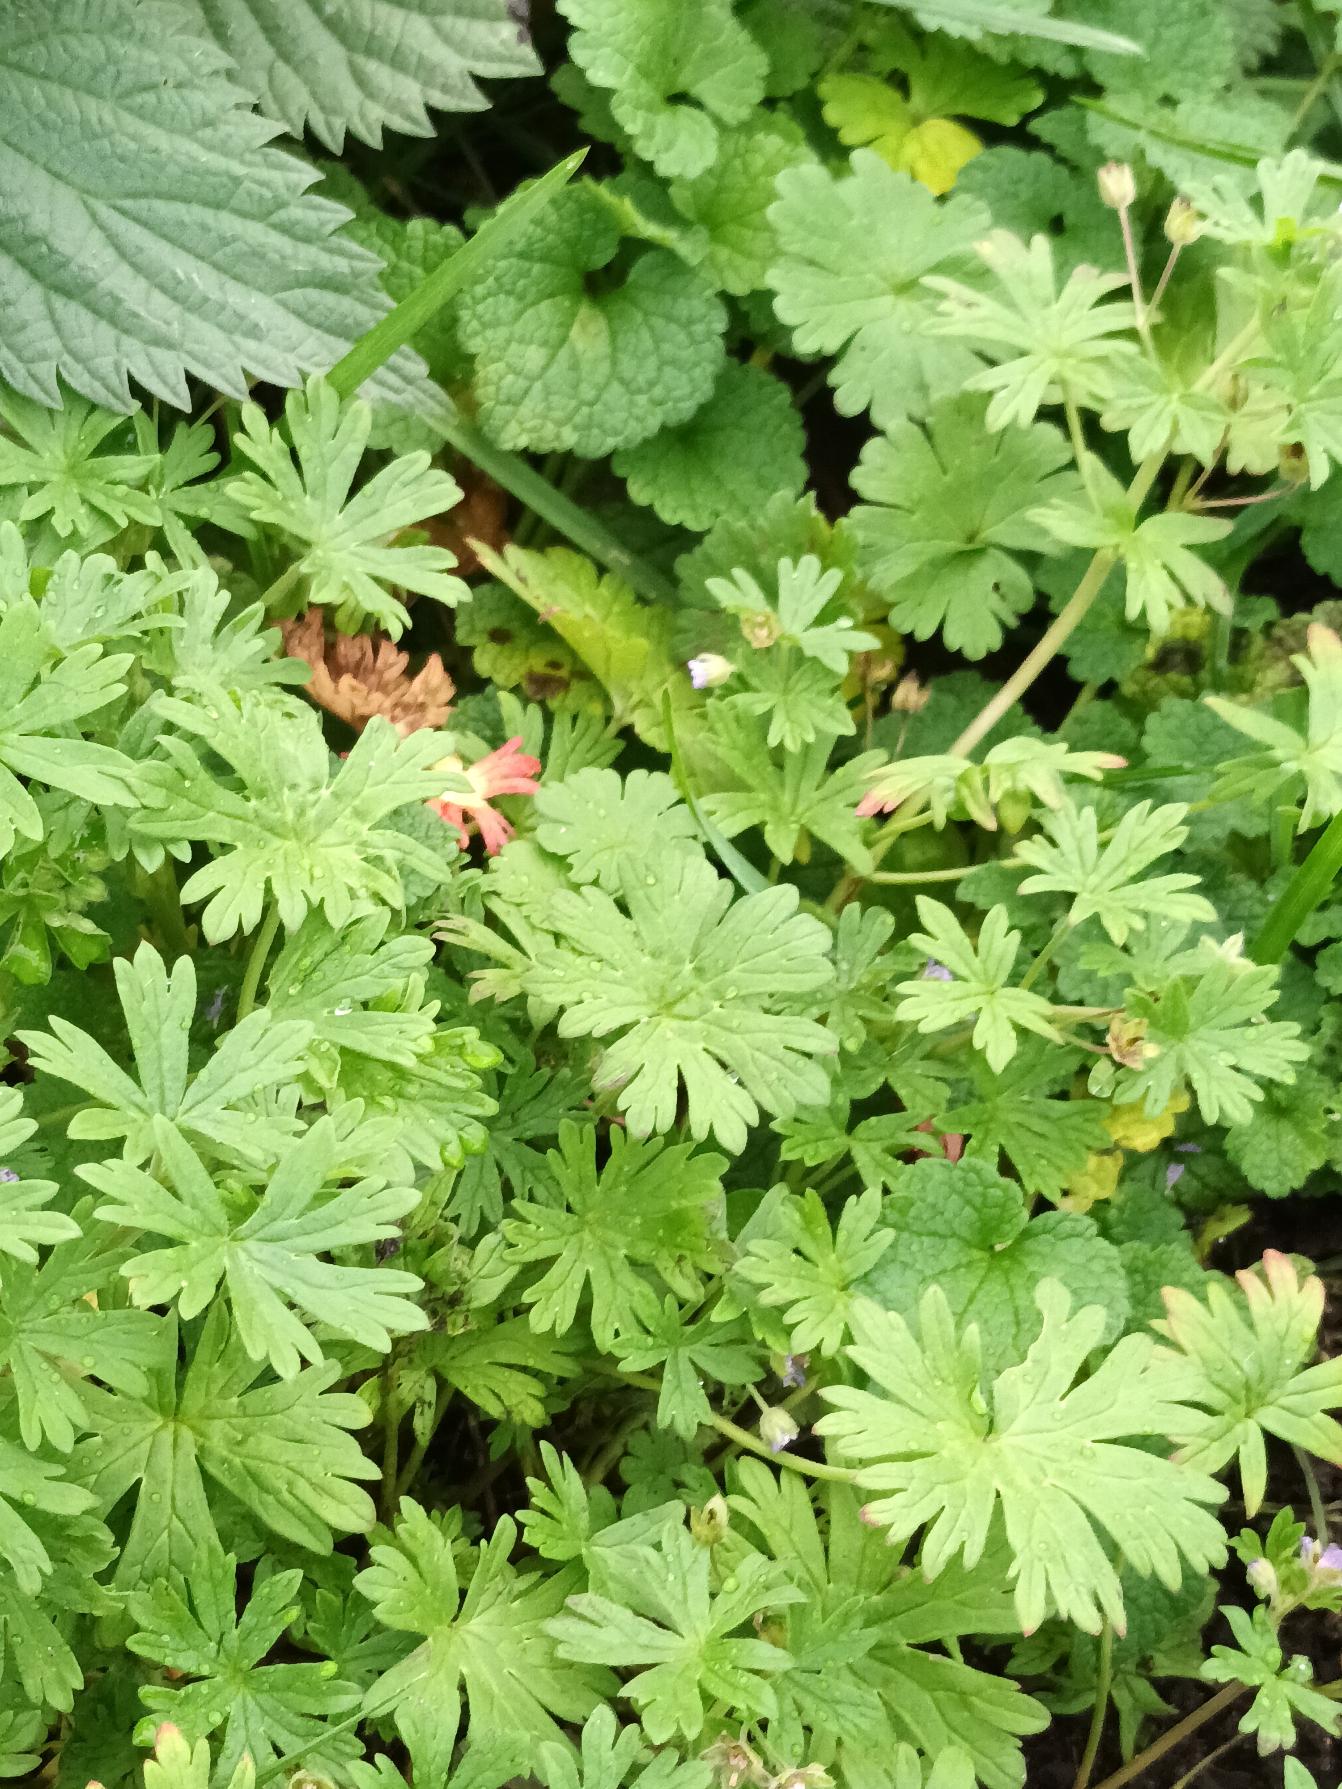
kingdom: Plantae
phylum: Tracheophyta
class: Magnoliopsida
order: Geraniales
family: Geraniaceae
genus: Geranium
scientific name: Geranium pusillum
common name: Liden storkenæb
